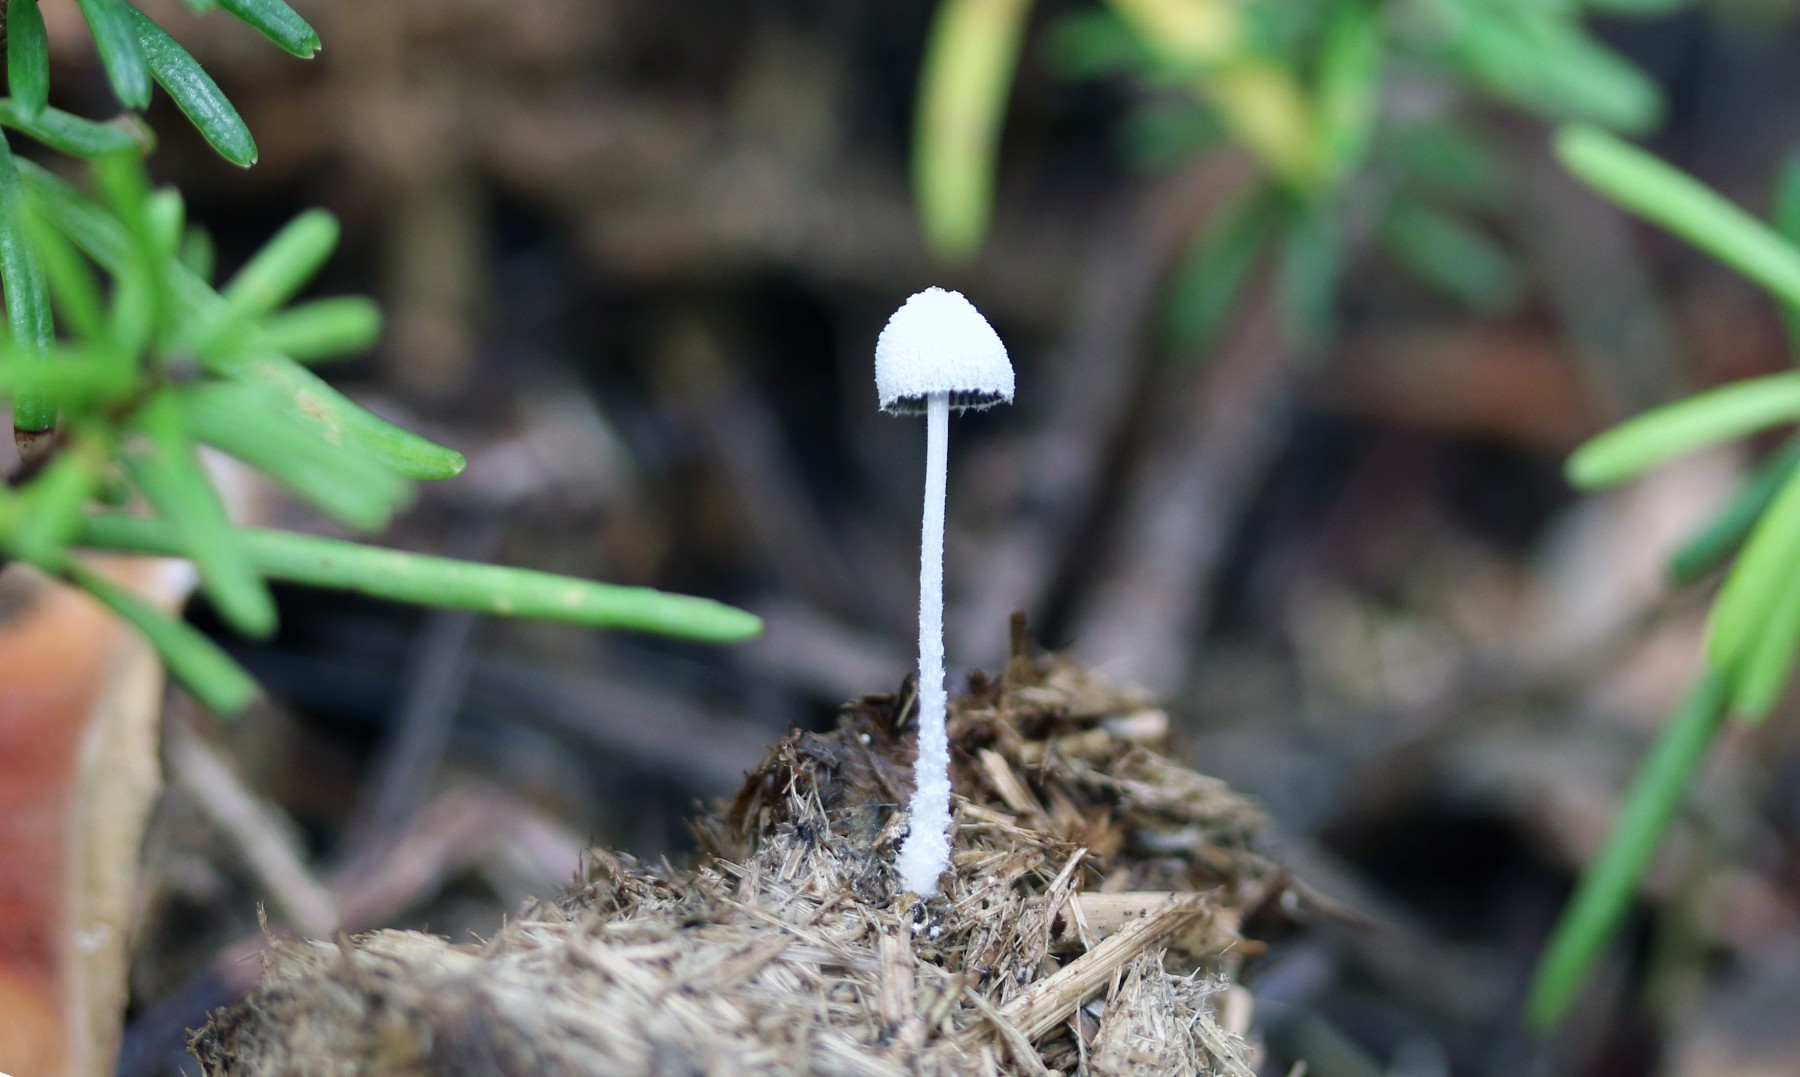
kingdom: Fungi
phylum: Basidiomycota
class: Agaricomycetes
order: Agaricales
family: Psathyrellaceae
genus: Coprinopsis
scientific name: Coprinopsis nivea
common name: snehvid blækhat
